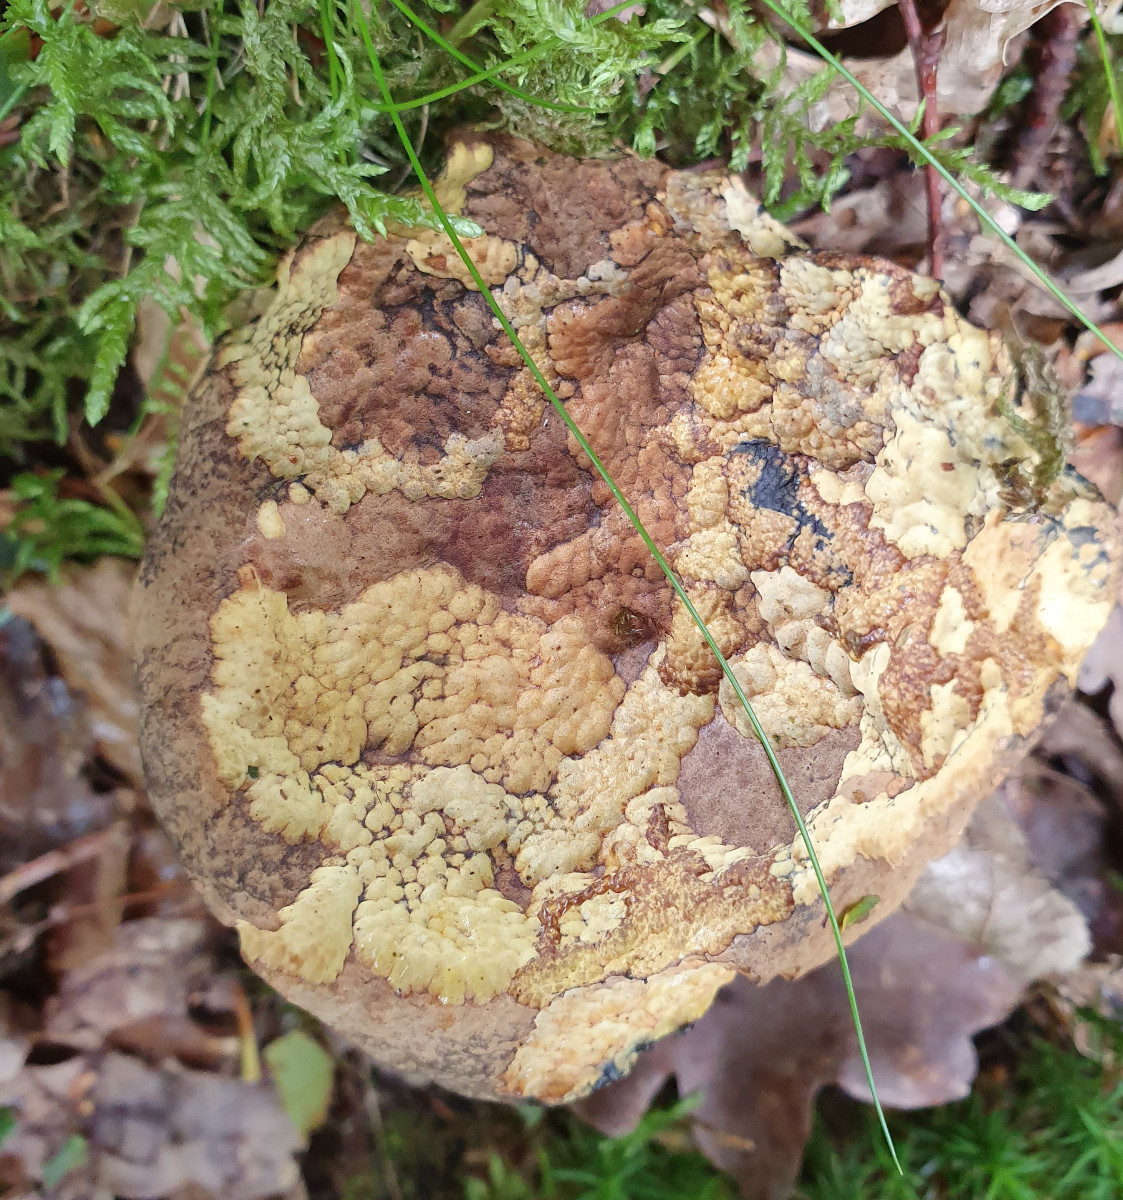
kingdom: Fungi
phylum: Basidiomycota
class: Agaricomycetes
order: Boletales
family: Boletaceae
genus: Neoboletus
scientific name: Neoboletus praestigiator
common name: gul indigorørhat
